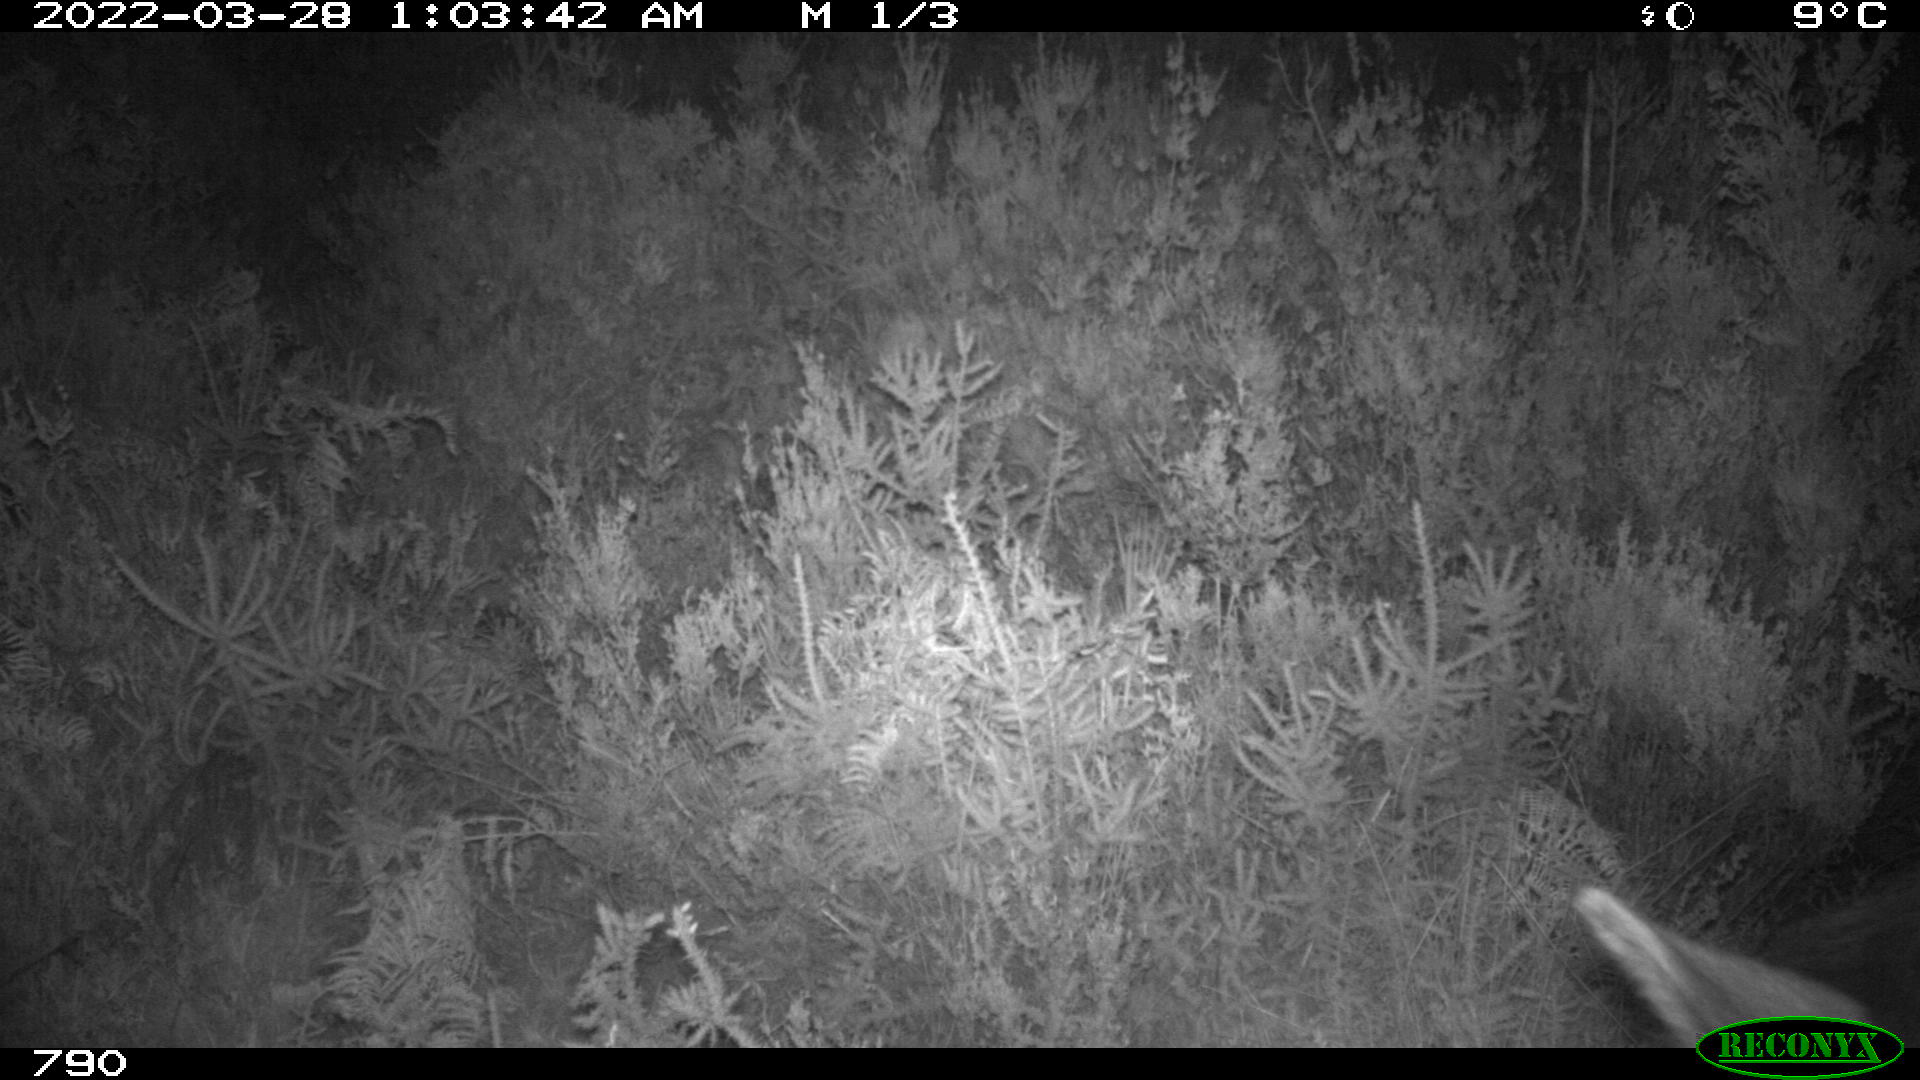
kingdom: Animalia
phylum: Chordata
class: Mammalia
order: Perissodactyla
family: Equidae
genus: Equus
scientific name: Equus caballus
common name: Horse
